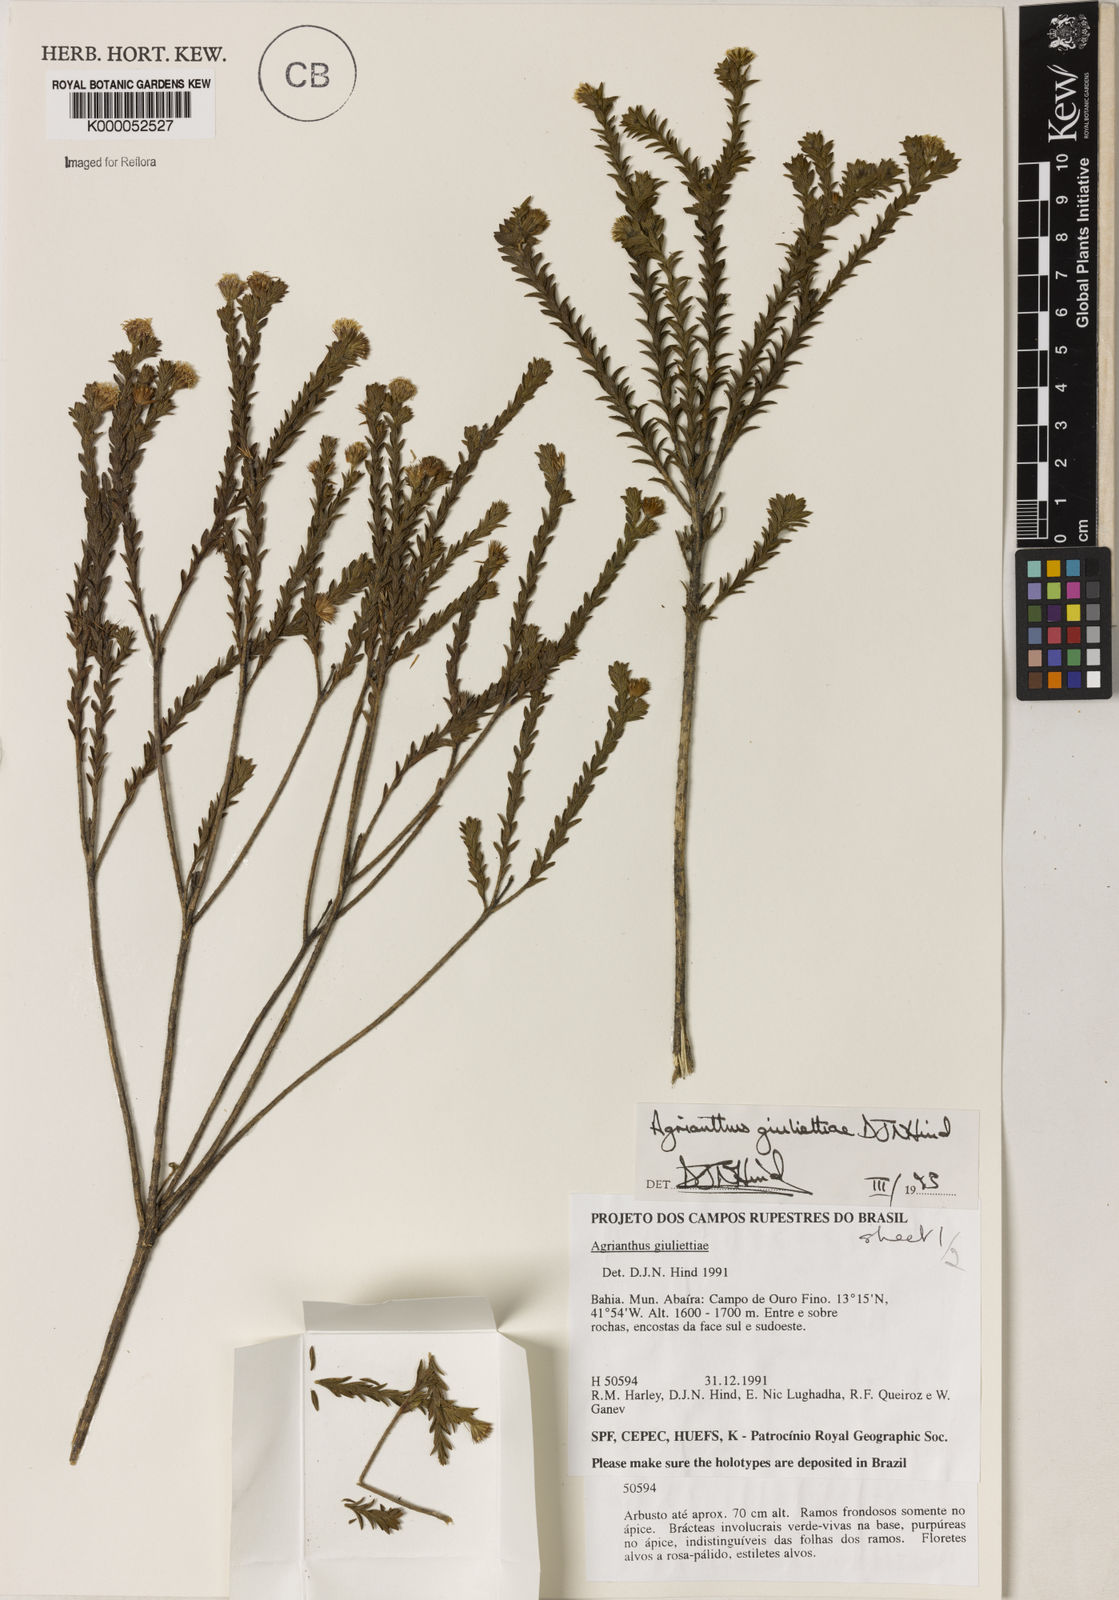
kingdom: Plantae
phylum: Tracheophyta
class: Magnoliopsida
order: Asterales
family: Asteraceae
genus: Agrianthus
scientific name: Agrianthus giuliettiae
